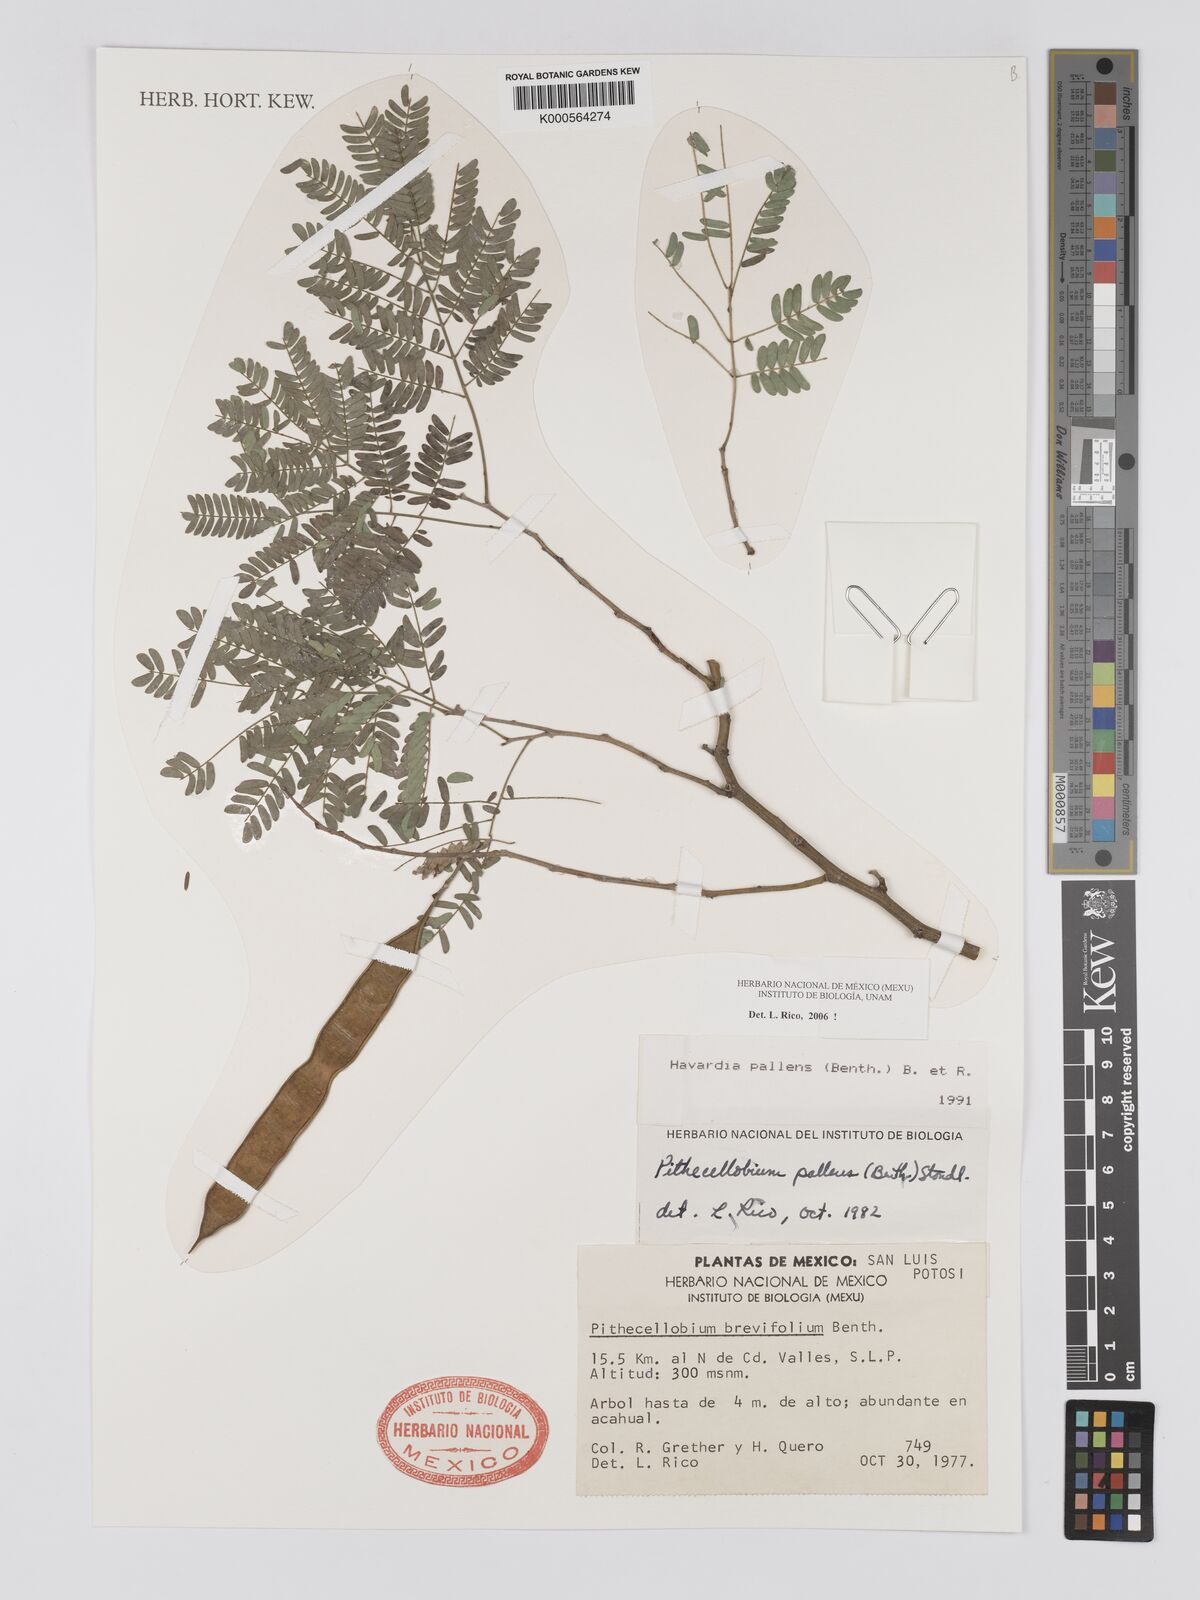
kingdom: Plantae
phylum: Tracheophyta
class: Magnoliopsida
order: Fabales
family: Fabaceae
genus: Havardia
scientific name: Havardia pallens
